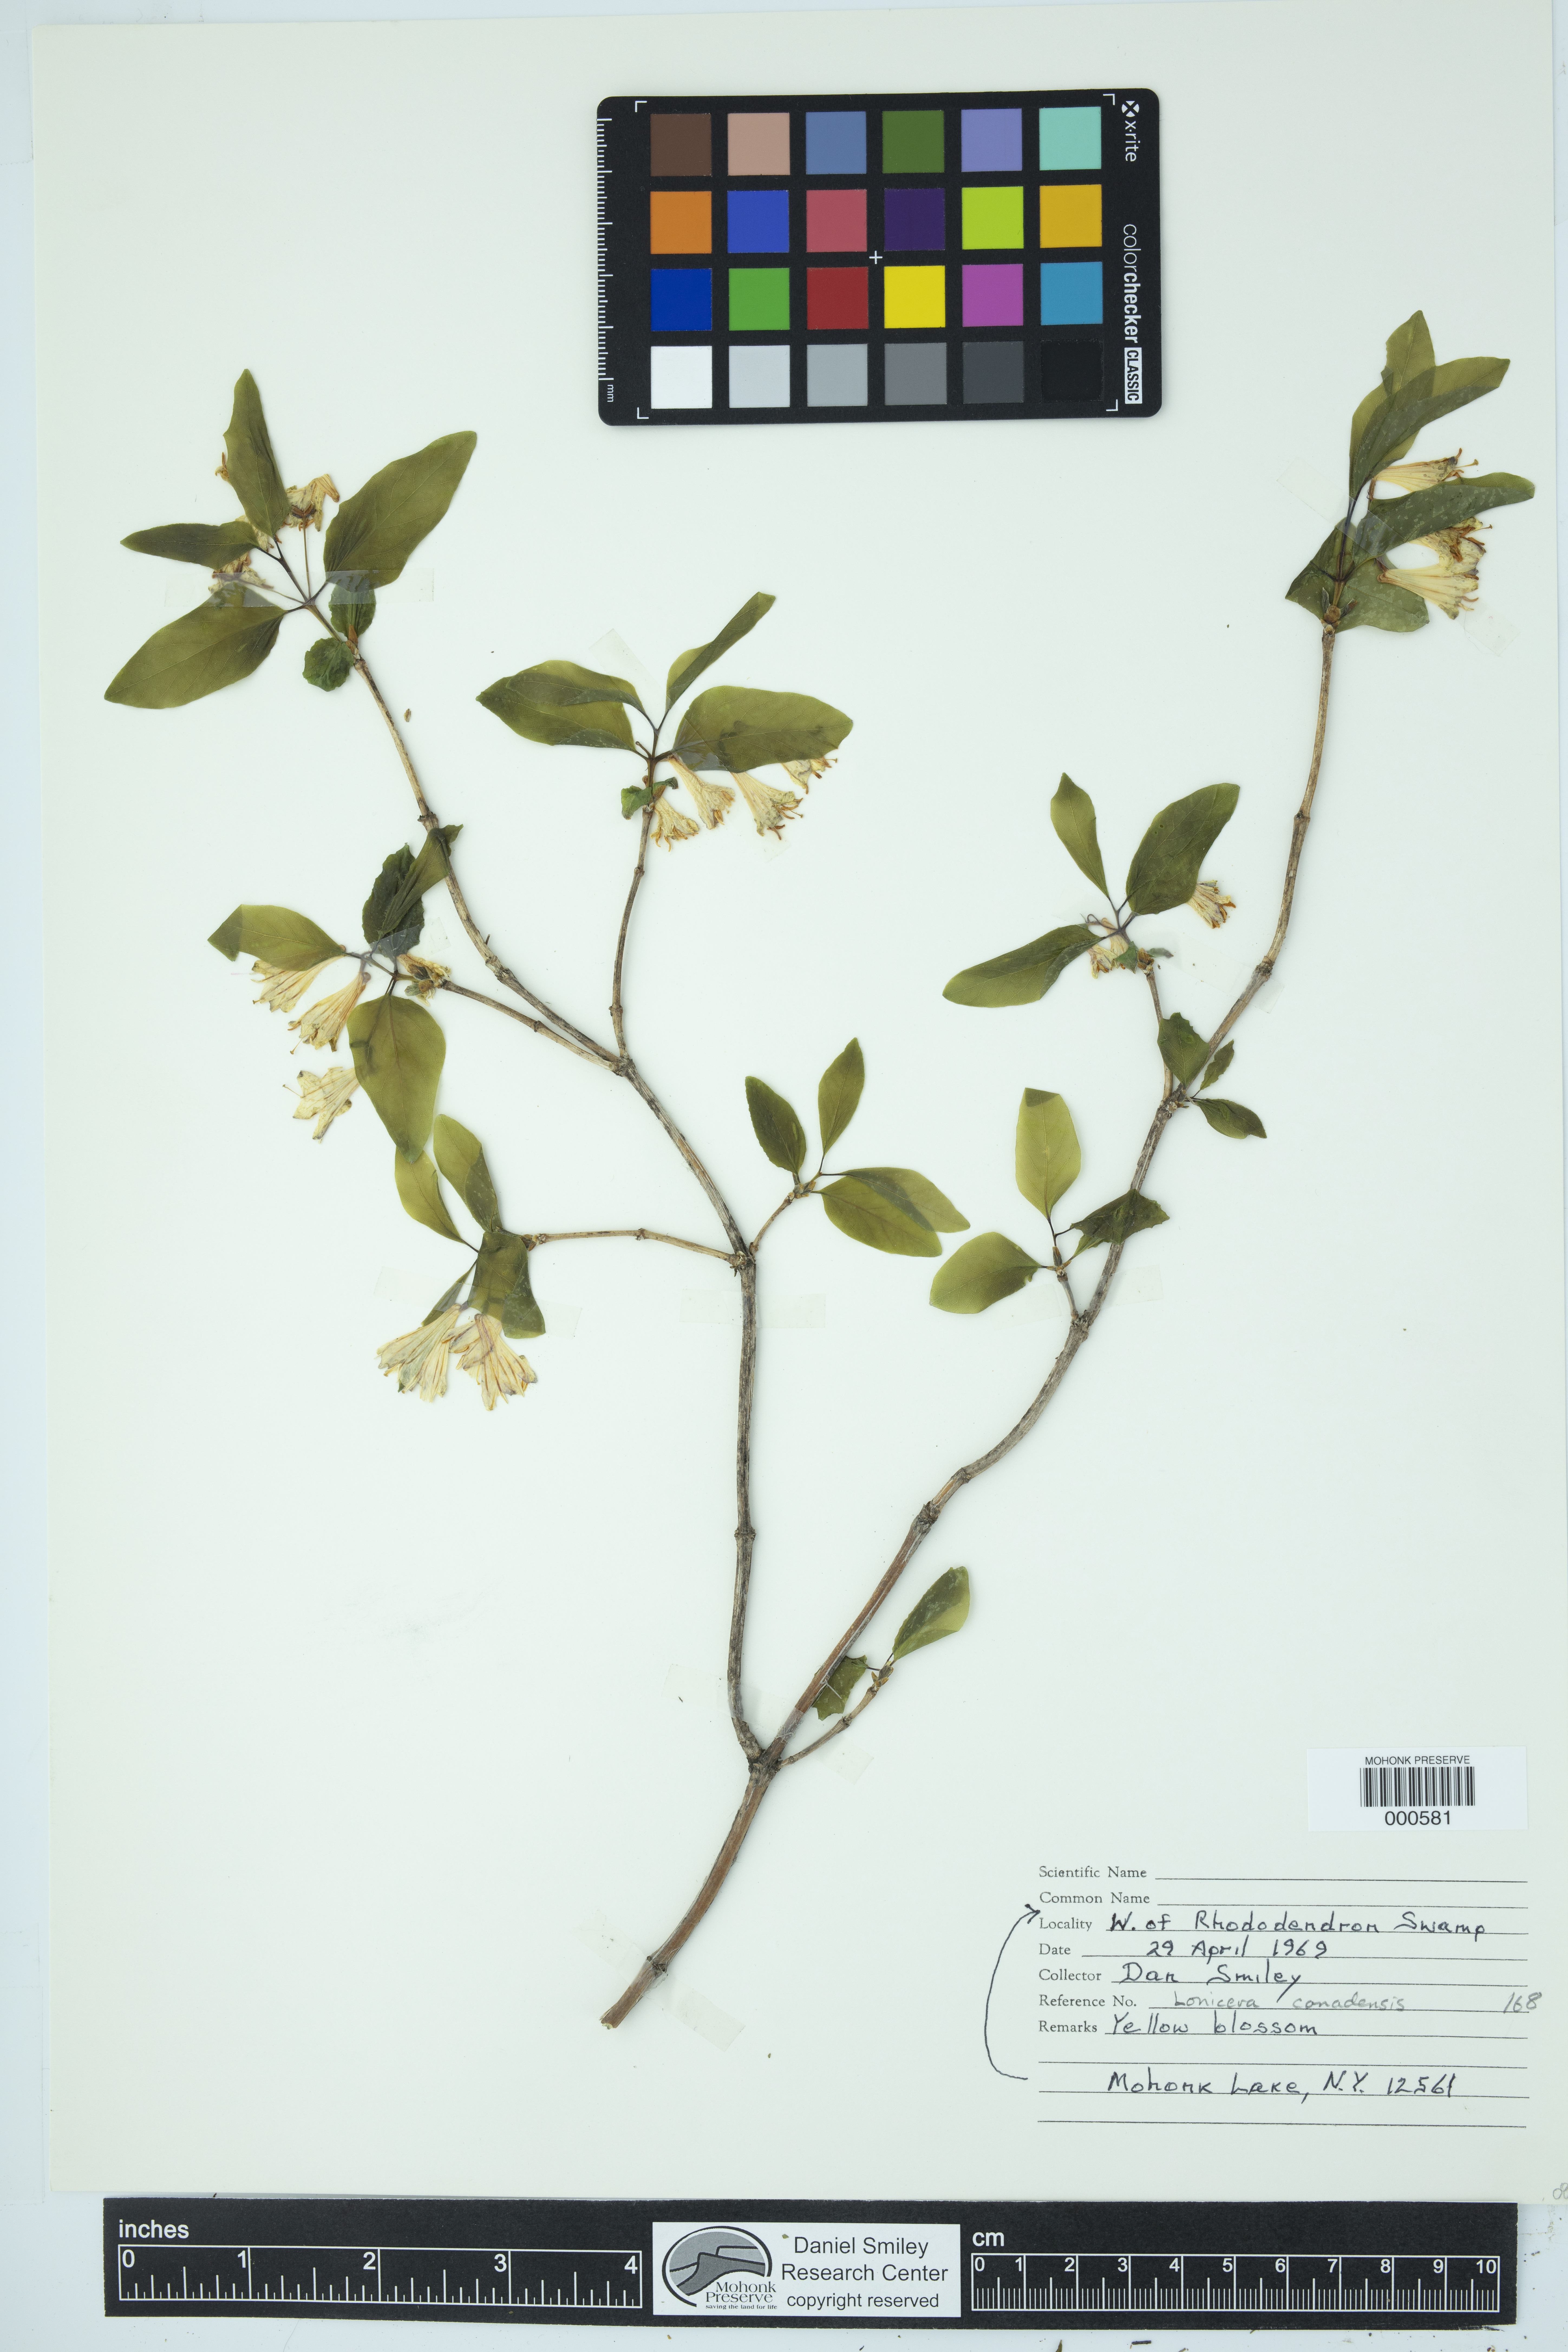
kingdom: Plantae
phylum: Tracheophyta
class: Magnoliopsida
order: Dipsacales
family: Caprifoliaceae
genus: Lonicera
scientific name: Lonicera canadensis
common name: American fly-honeysuckle
